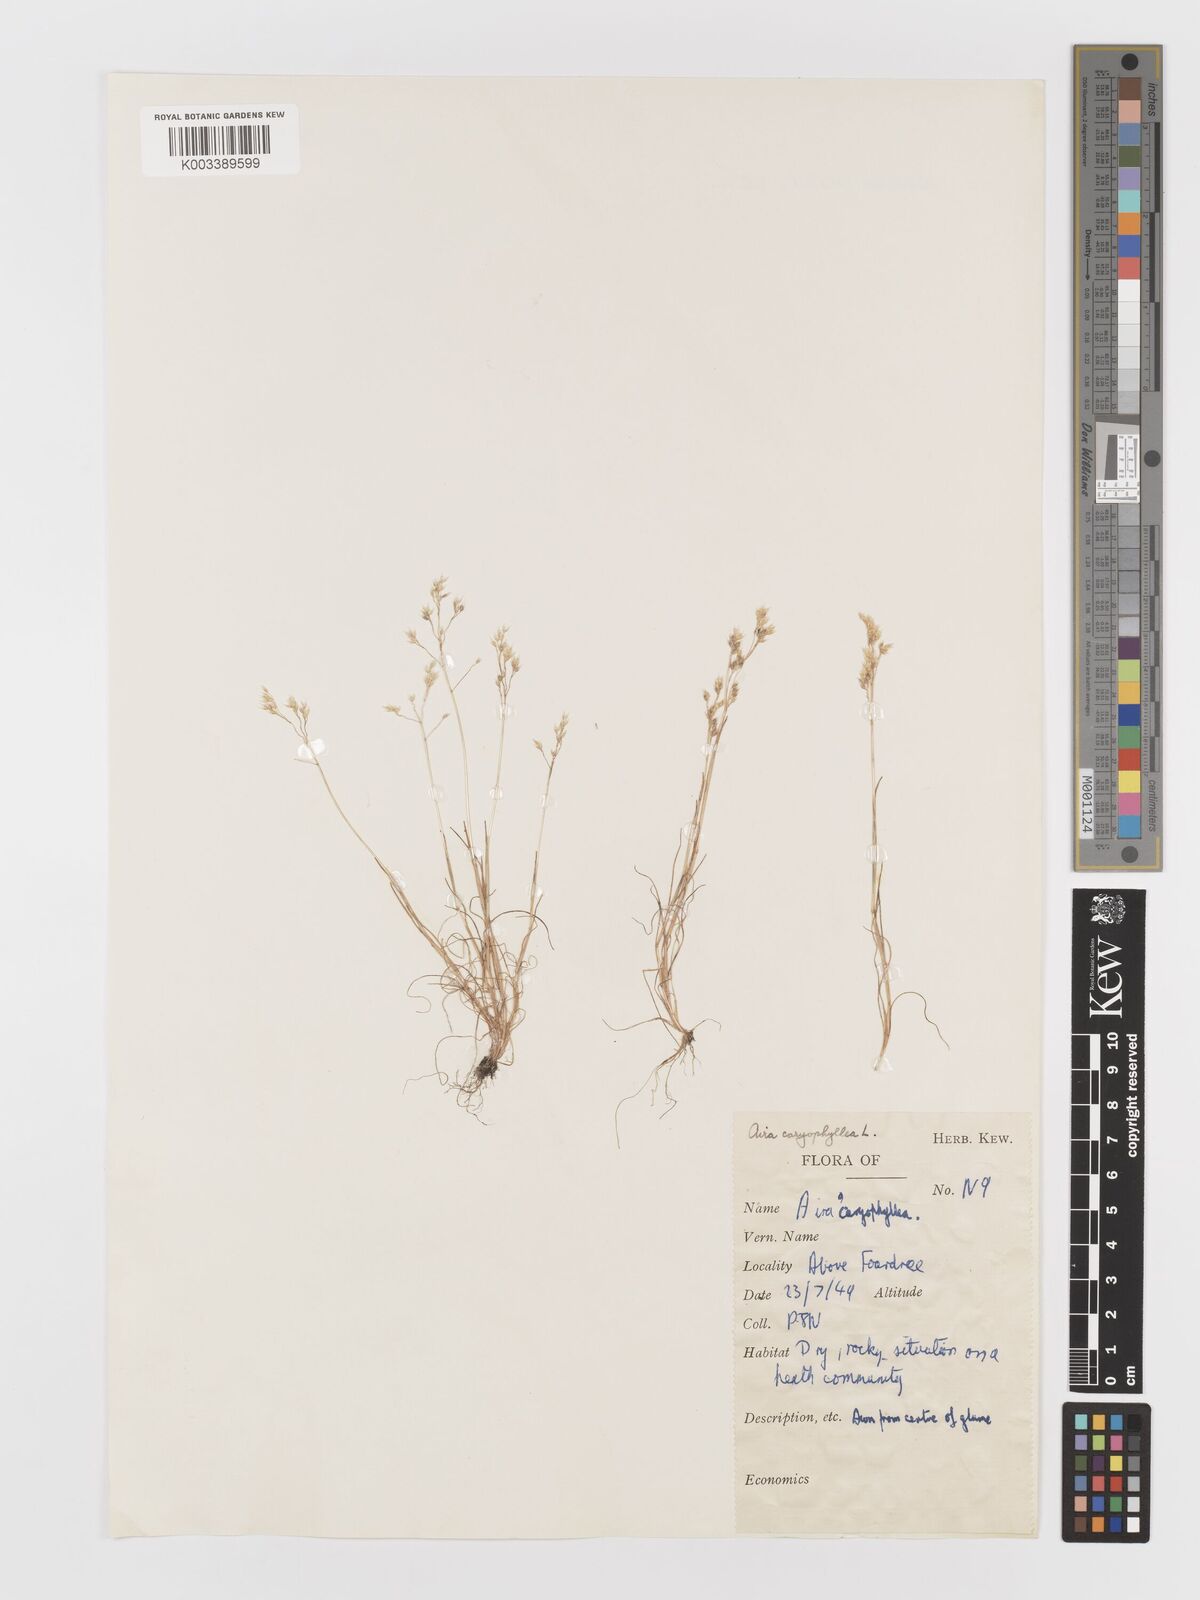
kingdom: Plantae
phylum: Tracheophyta
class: Liliopsida
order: Poales
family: Poaceae
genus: Aira
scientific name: Aira caryophyllea
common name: Silver hairgrass
